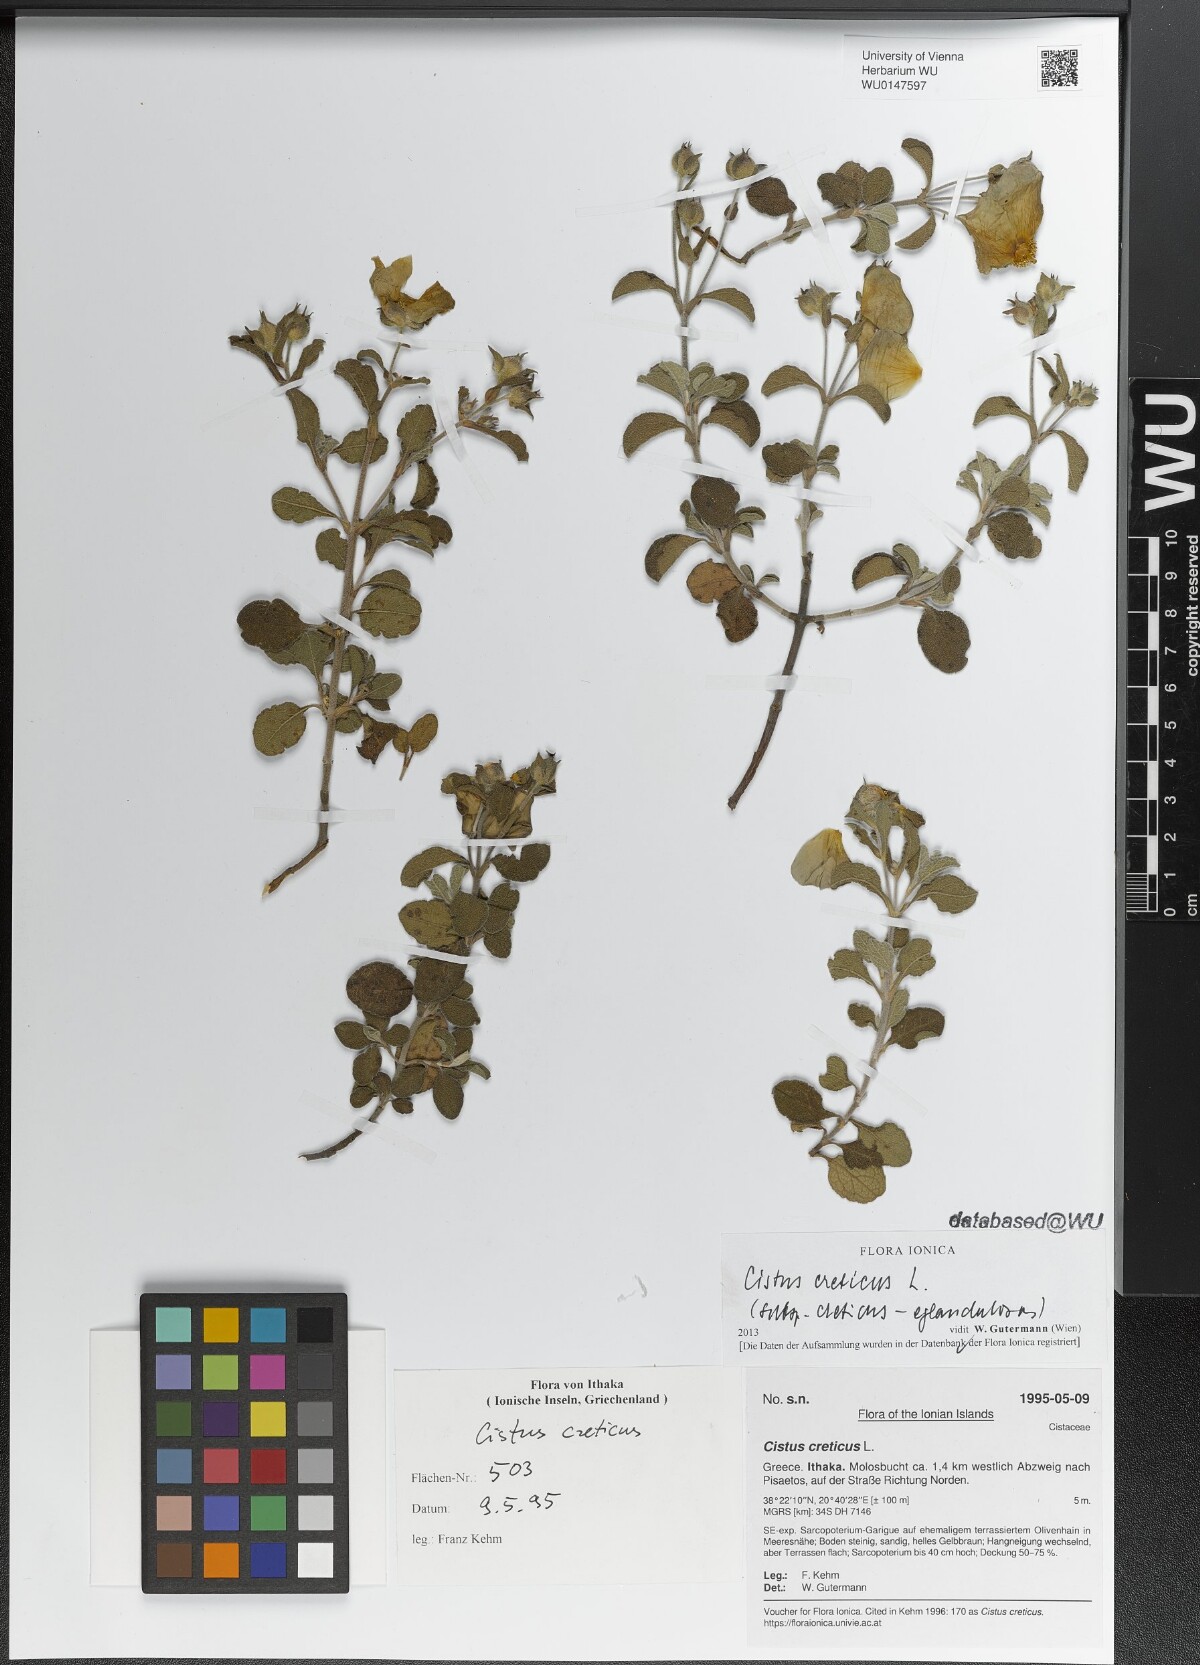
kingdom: Plantae
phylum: Tracheophyta
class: Magnoliopsida
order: Malvales
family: Cistaceae
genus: Cistus
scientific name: Cistus creticus
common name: Cretan rockrose
